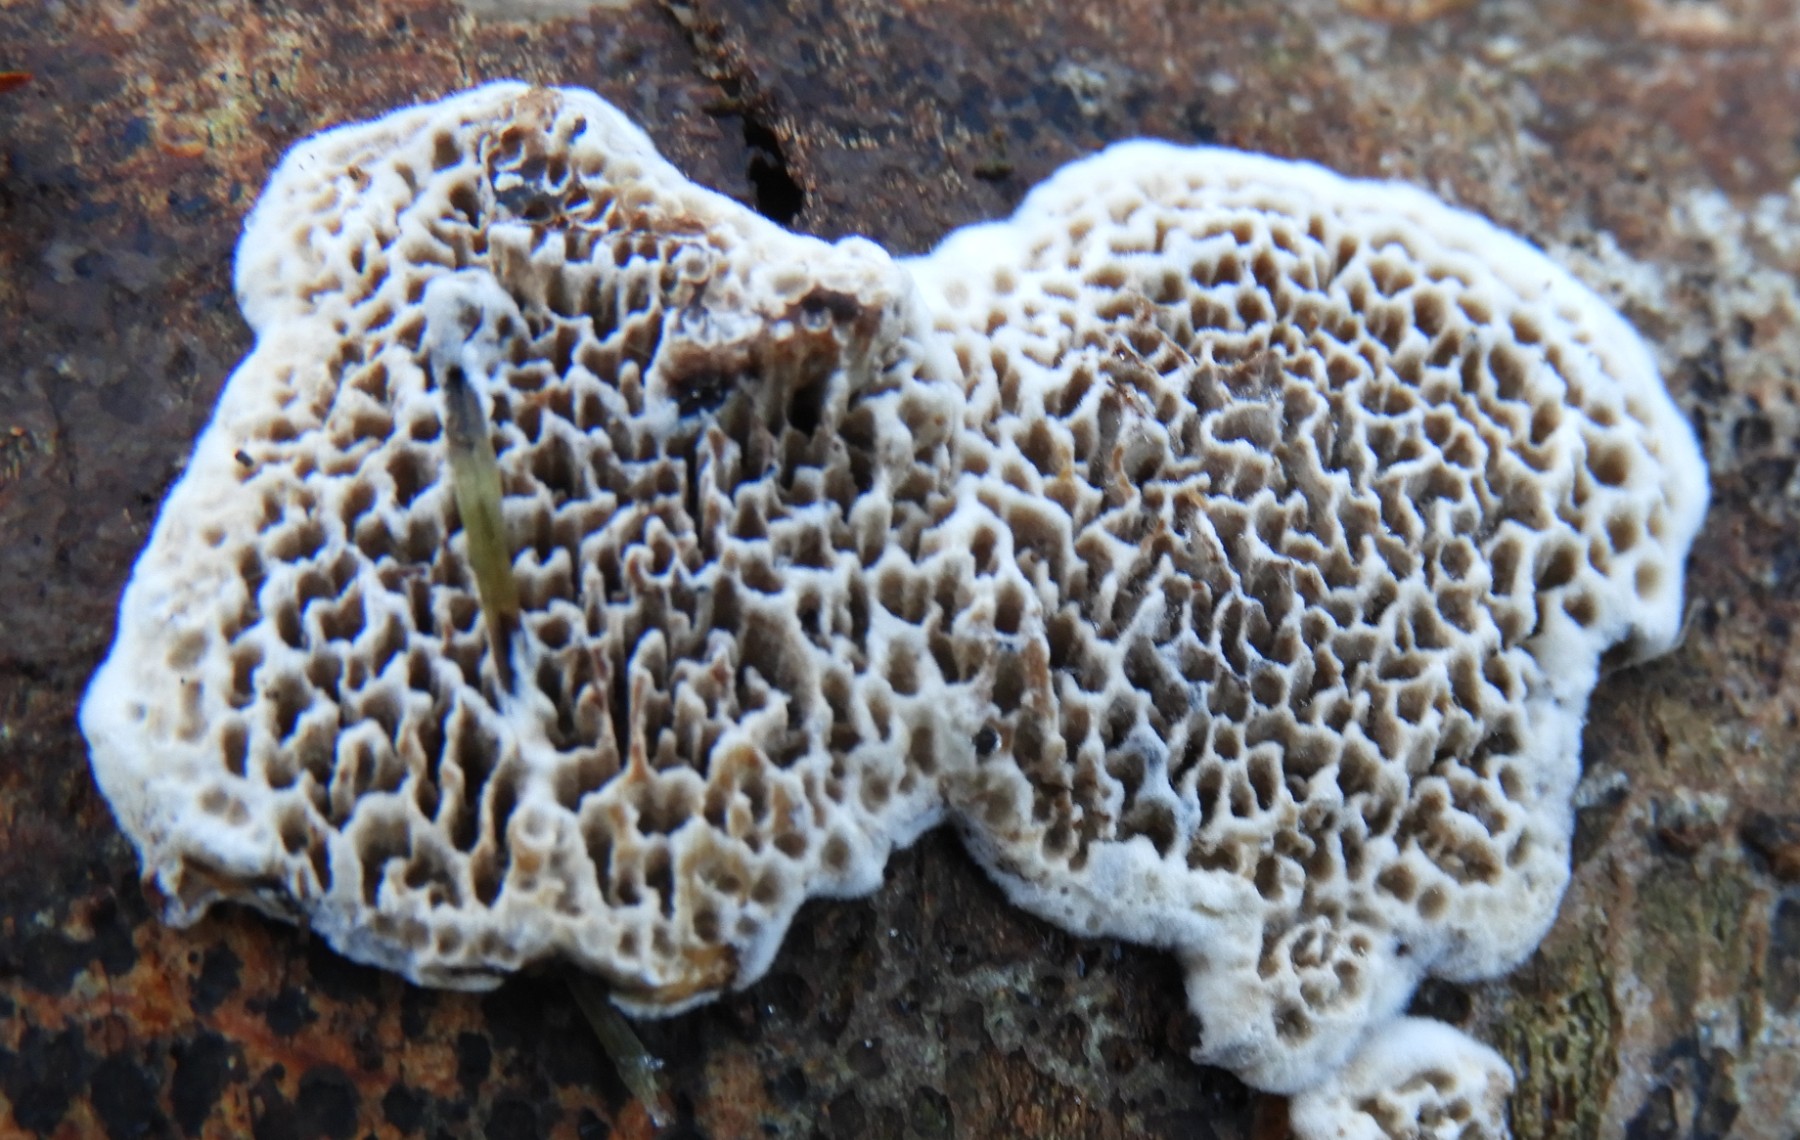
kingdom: Fungi
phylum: Basidiomycota
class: Agaricomycetes
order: Polyporales
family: Polyporaceae
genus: Podofomes
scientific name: Podofomes mollis
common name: blød begporesvamp
